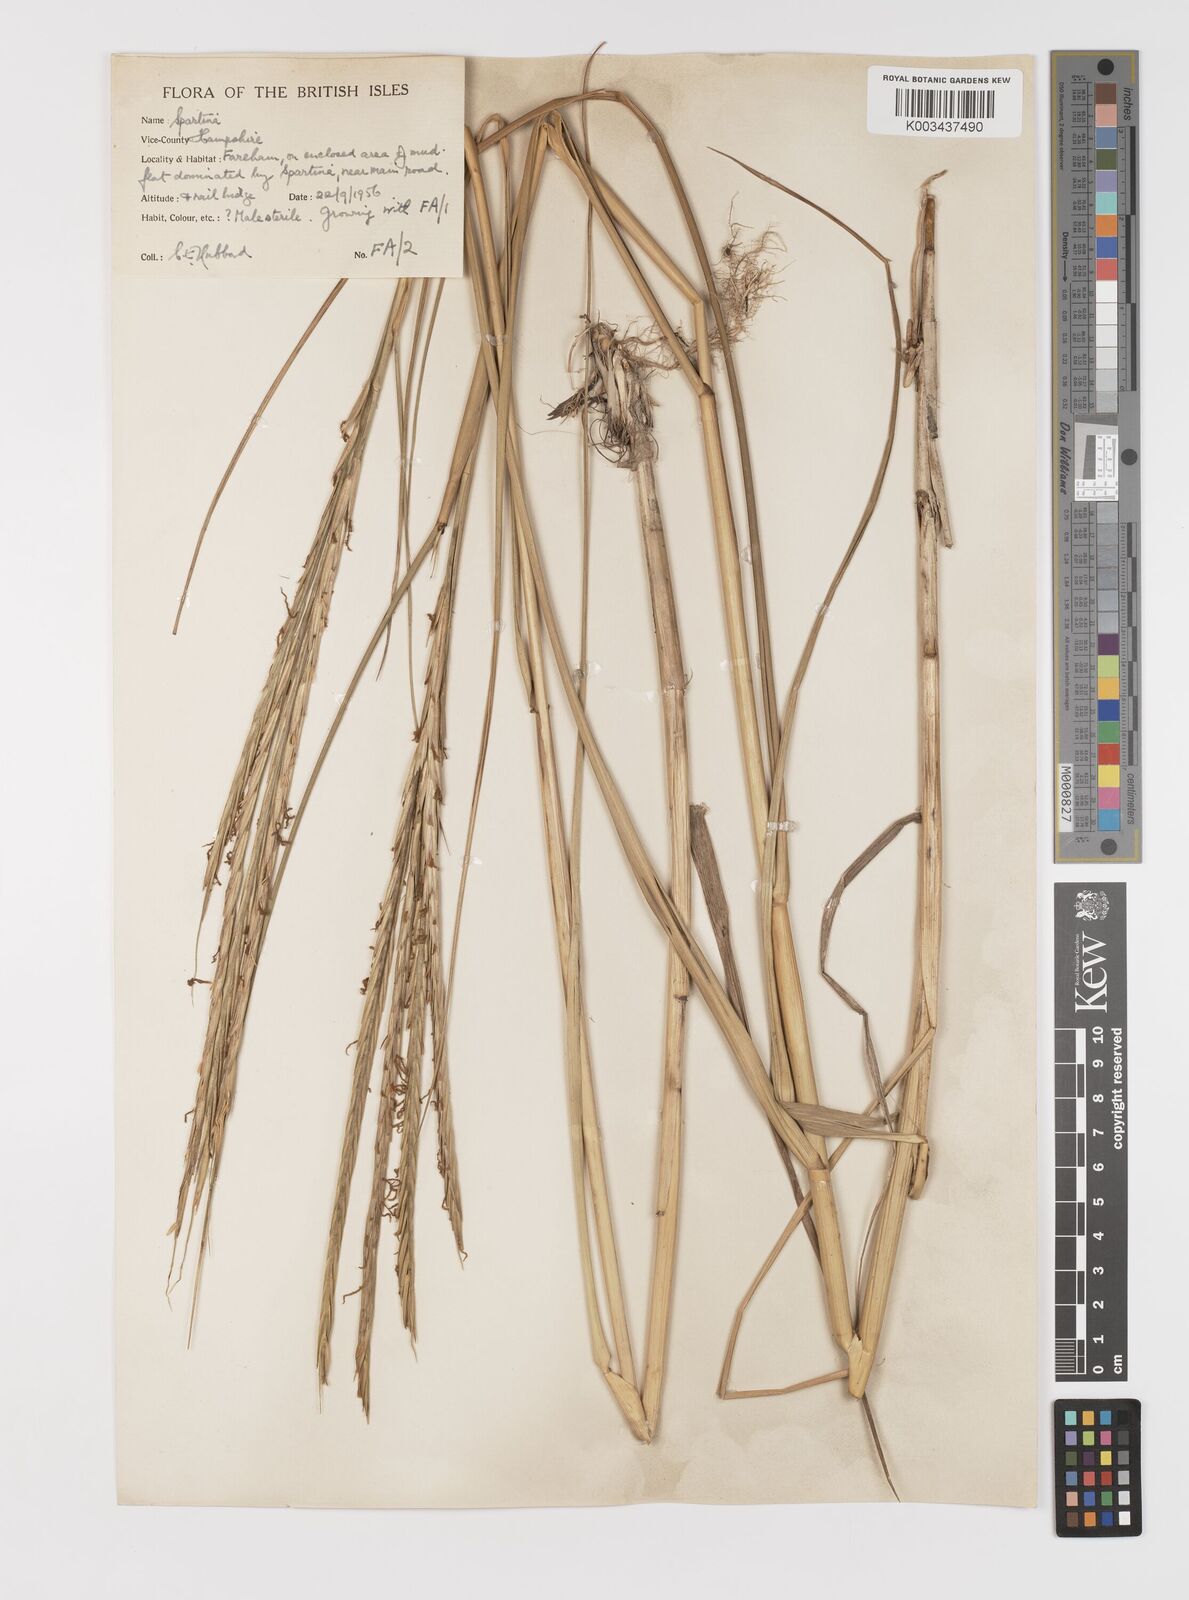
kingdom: Plantae
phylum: Tracheophyta
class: Liliopsida
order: Poales
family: Poaceae
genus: Sporobolus
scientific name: Sporobolus anglicus
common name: English cordgrass
